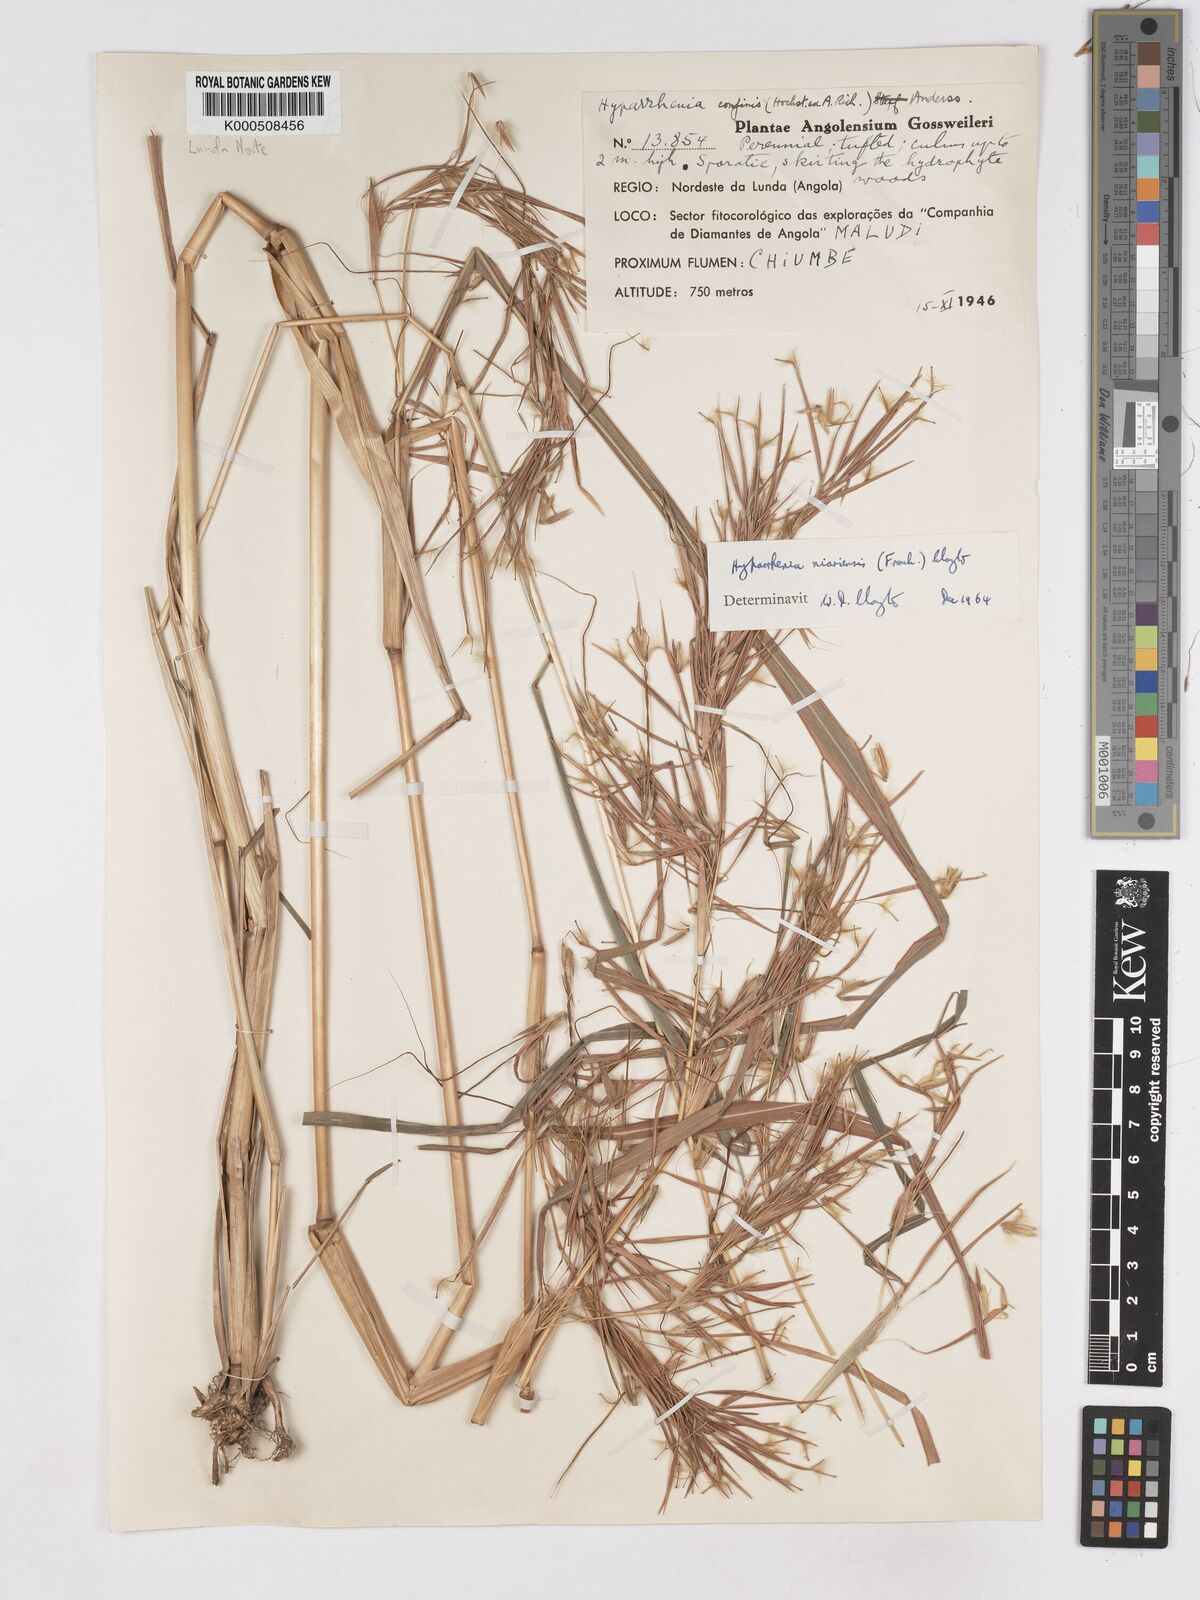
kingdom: Plantae
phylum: Tracheophyta
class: Liliopsida
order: Poales
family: Poaceae
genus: Hyparrhenia
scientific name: Hyparrhenia niariensis
